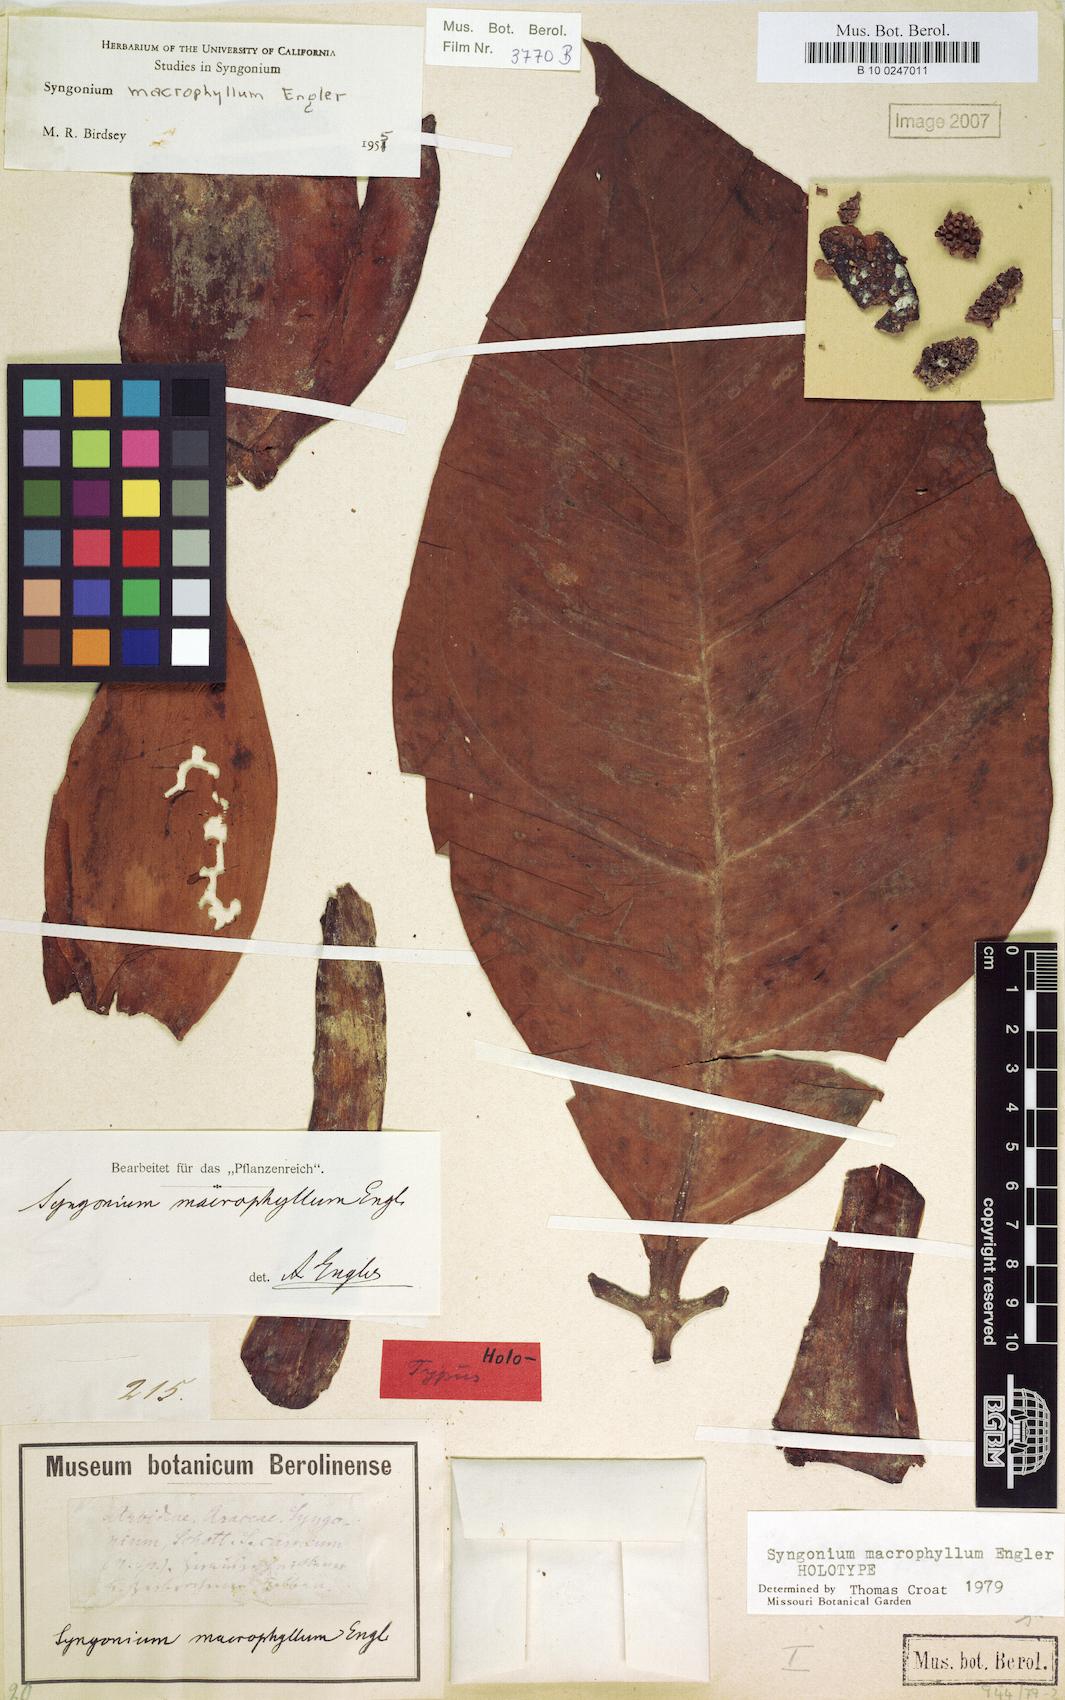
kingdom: Plantae
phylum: Tracheophyta
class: Liliopsida
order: Alismatales
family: Araceae
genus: Syngonium
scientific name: Syngonium macrophyllum
